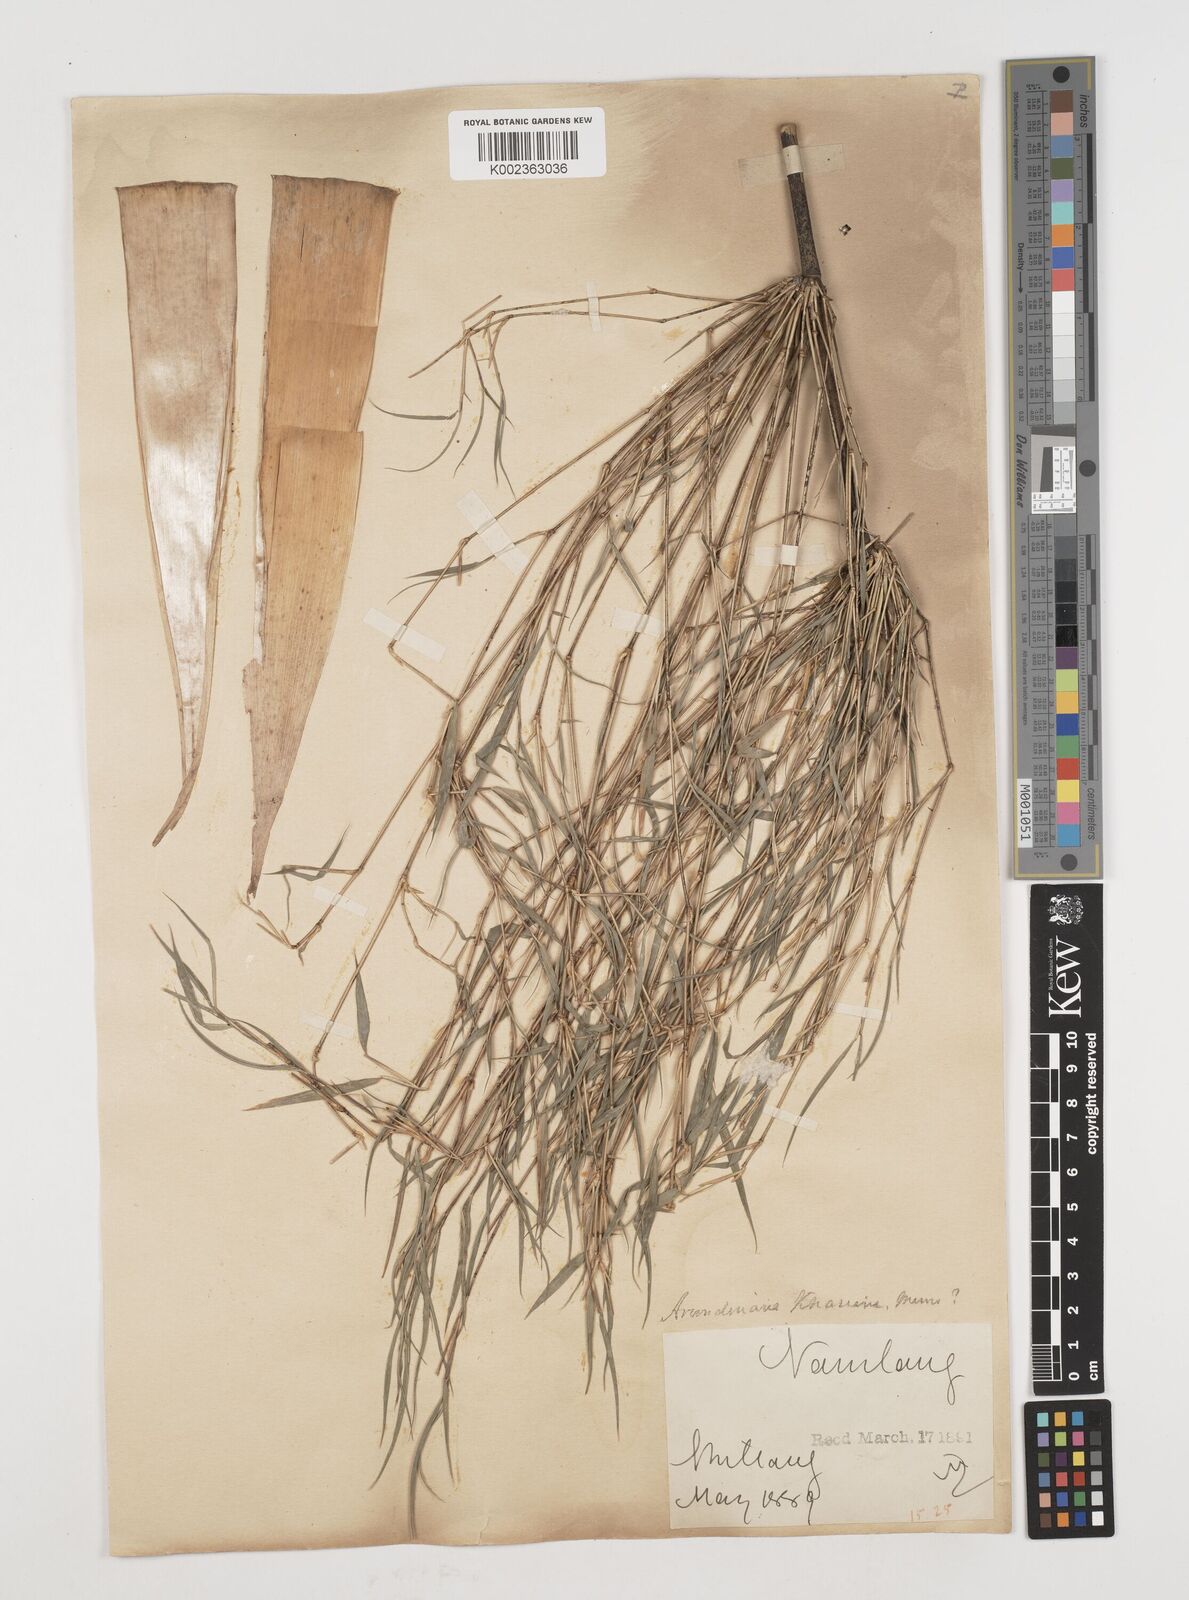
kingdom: Plantae
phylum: Tracheophyta
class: Liliopsida
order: Poales
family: Poaceae
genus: Drepanostachyum
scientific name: Drepanostachyum khasianum
